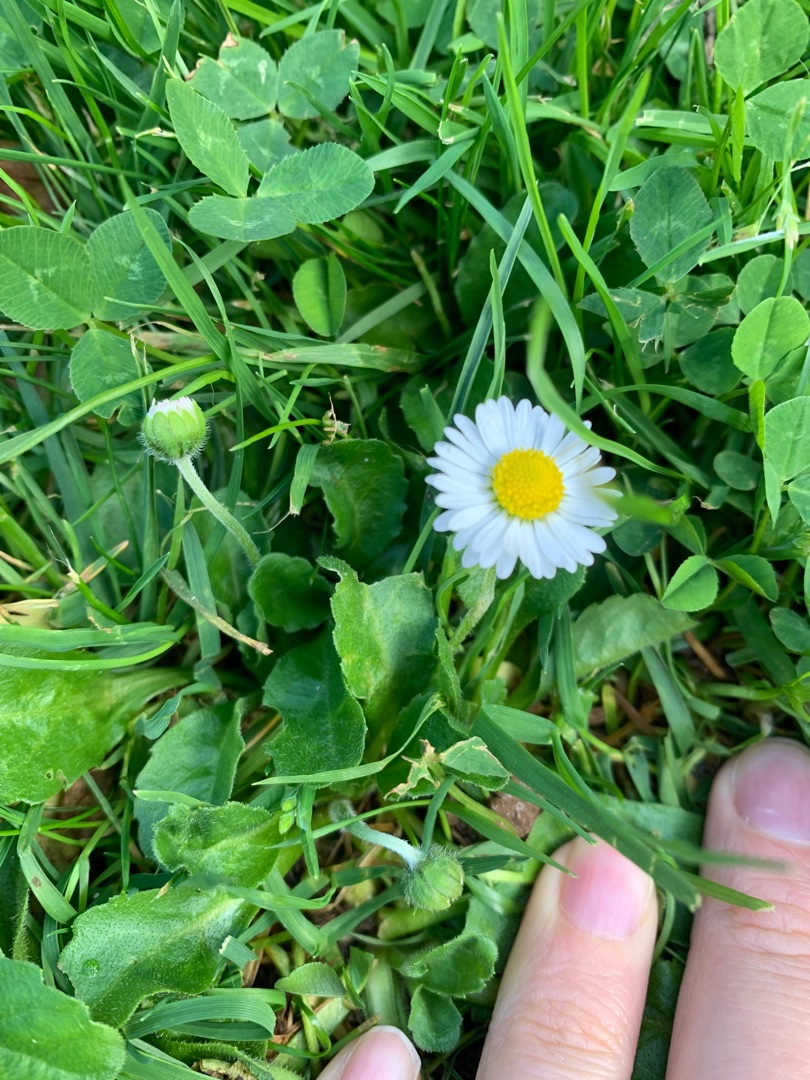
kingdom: Plantae
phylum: Tracheophyta
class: Magnoliopsida
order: Asterales
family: Asteraceae
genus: Bellis
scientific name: Bellis perennis
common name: Tusindfryd
